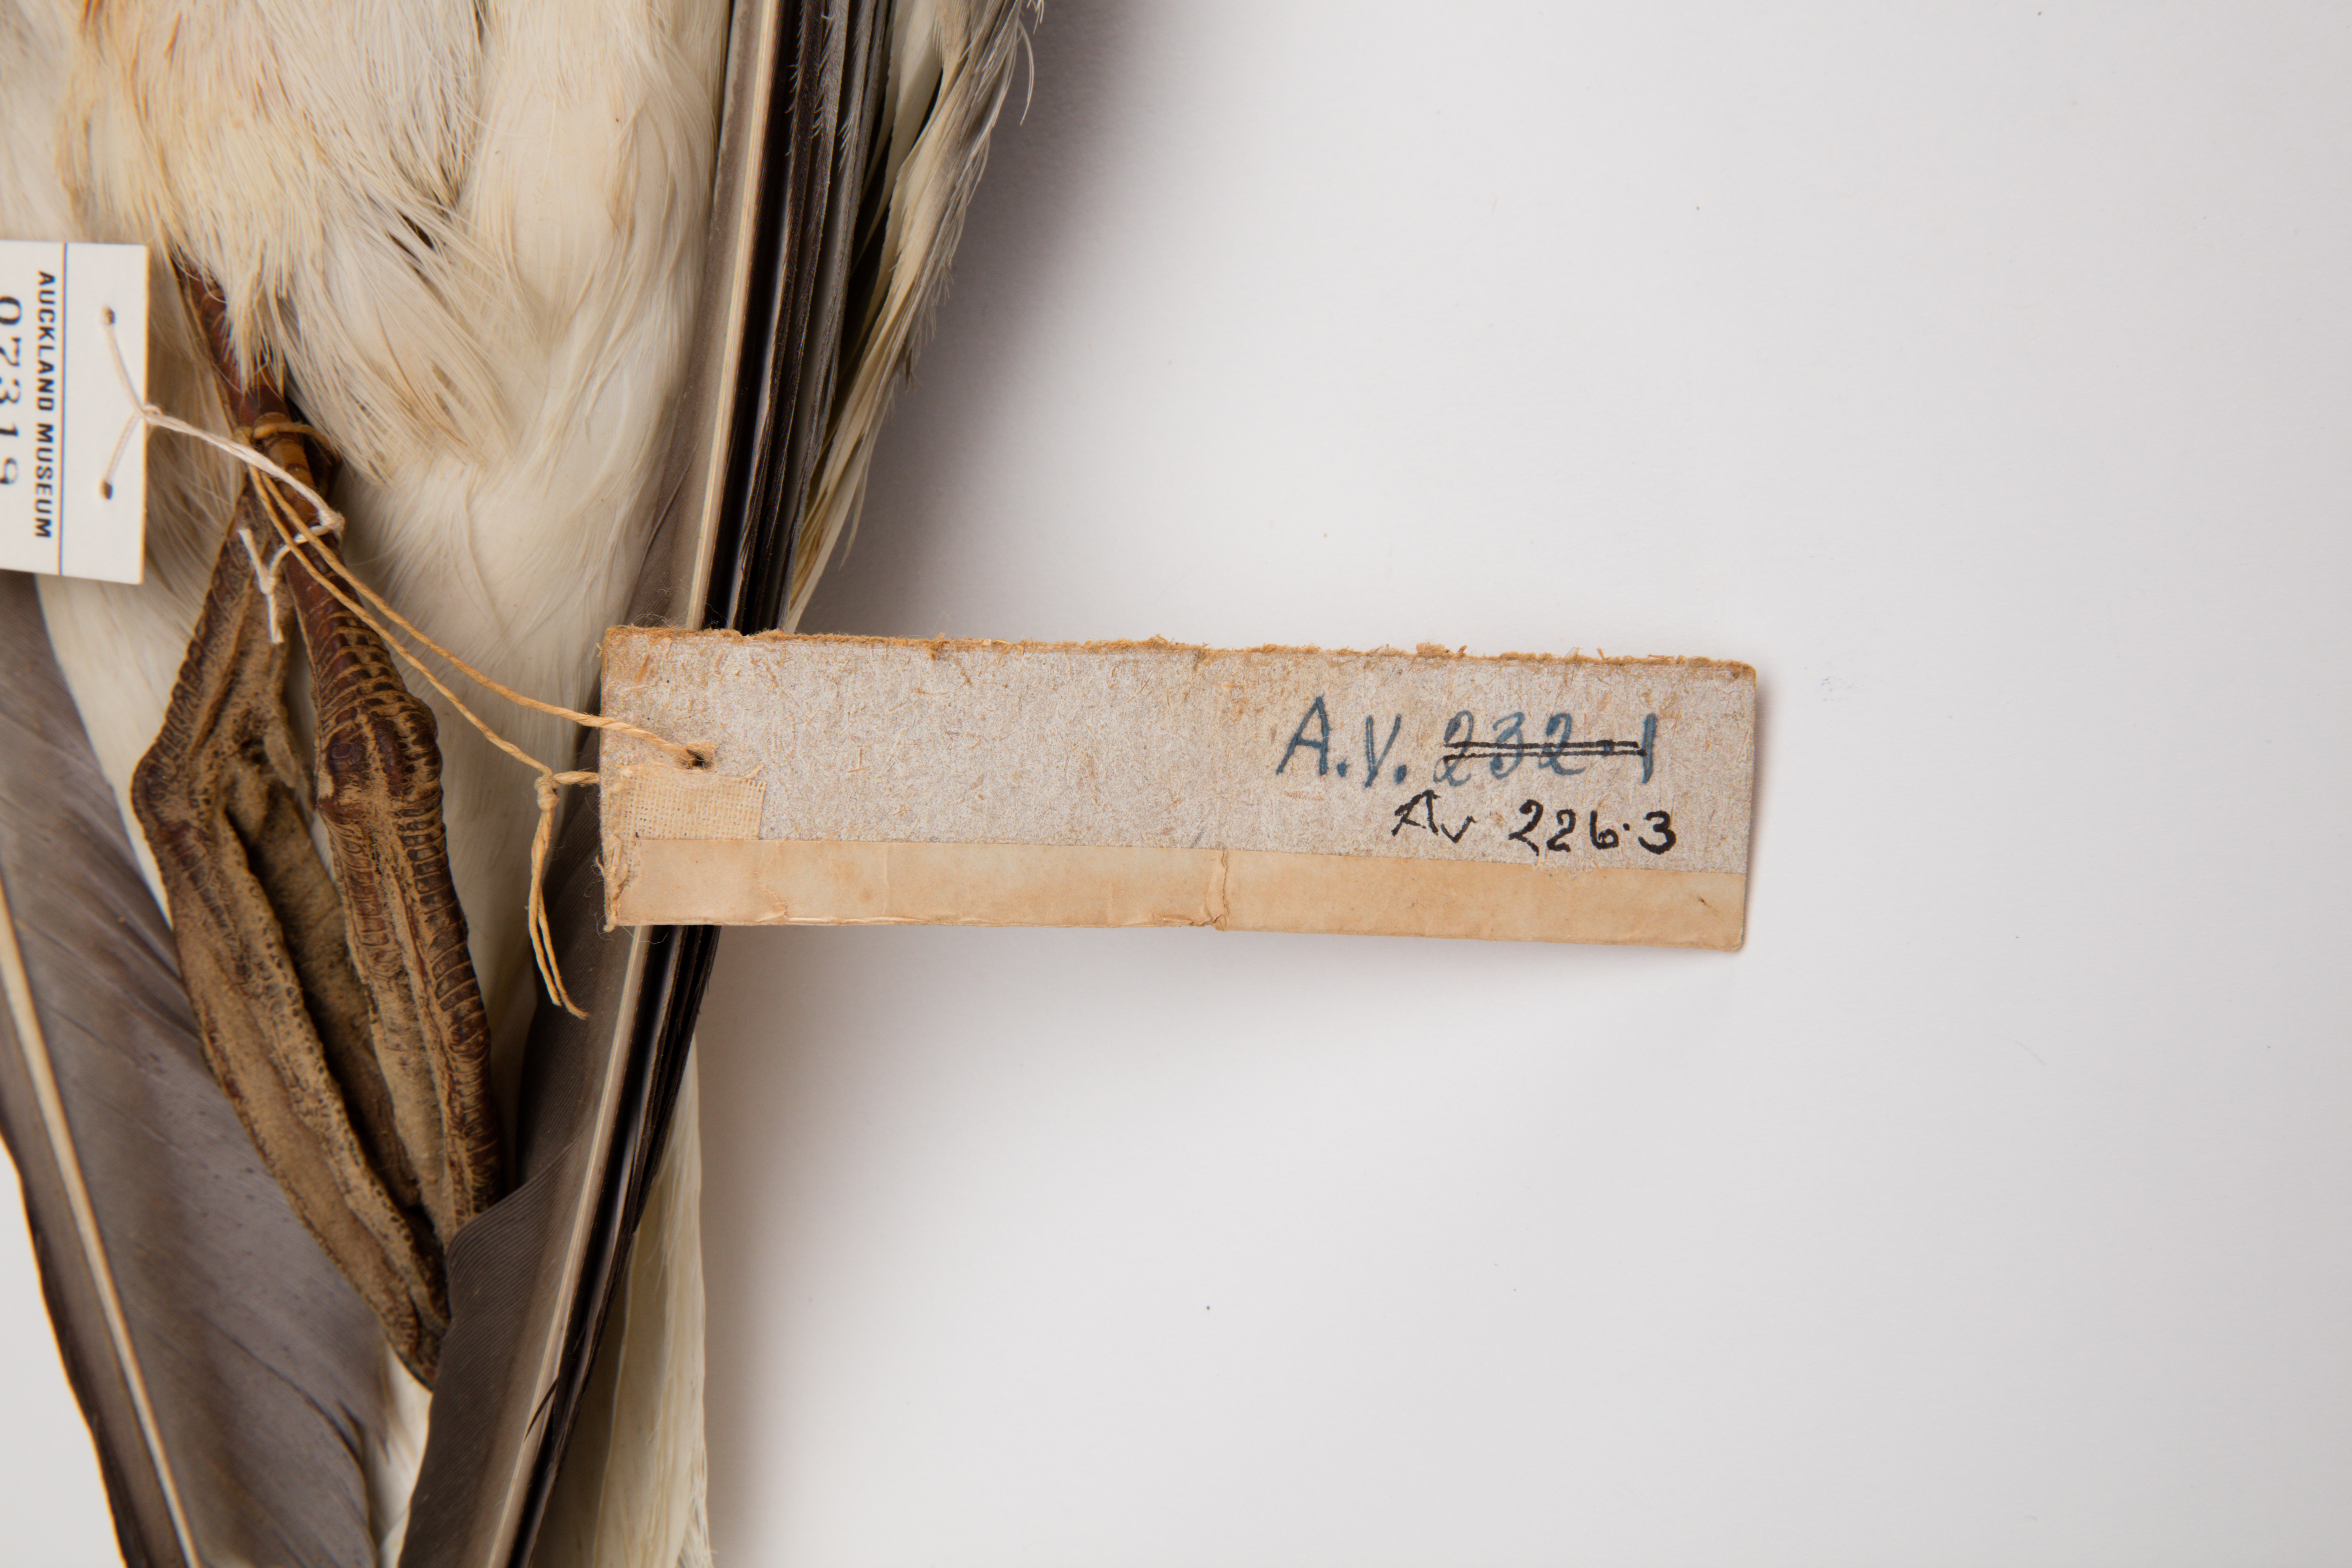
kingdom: Animalia
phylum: Chordata
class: Aves
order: Charadriiformes
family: Laridae
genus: Larus
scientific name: Larus argentatus
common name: Herring gull
